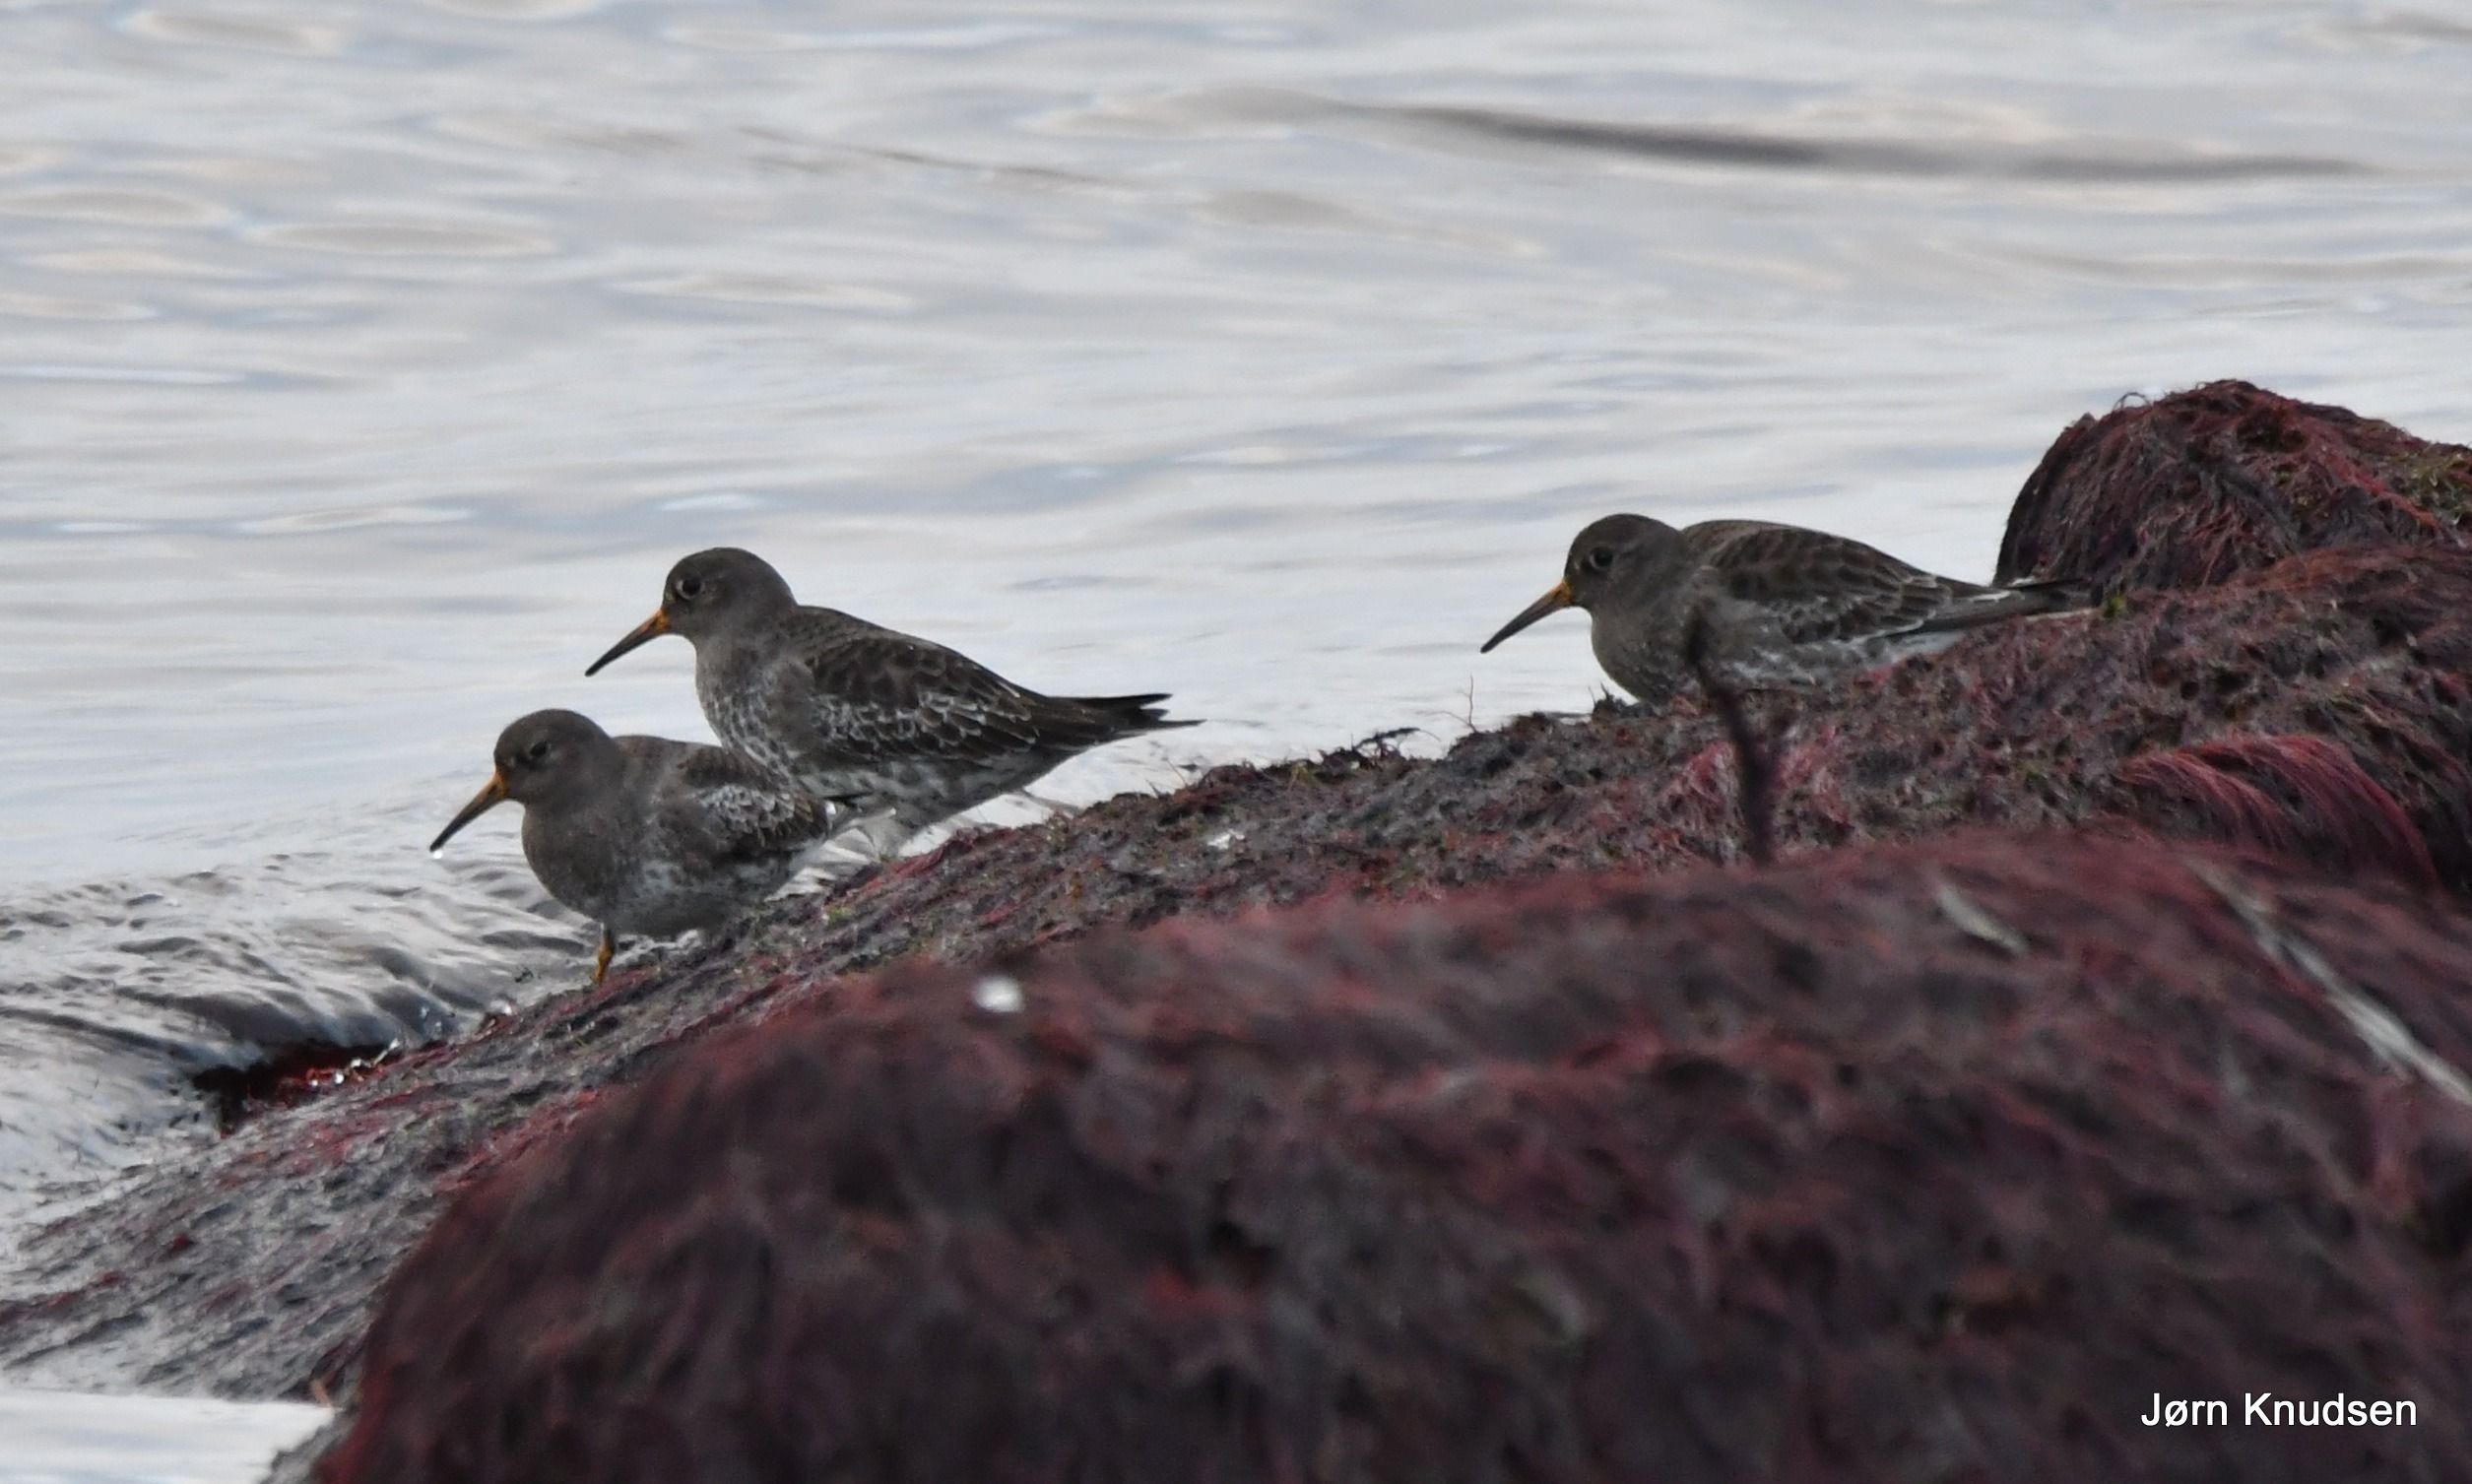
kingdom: Animalia
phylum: Chordata
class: Aves
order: Charadriiformes
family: Scolopacidae
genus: Calidris
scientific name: Calidris maritima
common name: Sortgrå ryle
